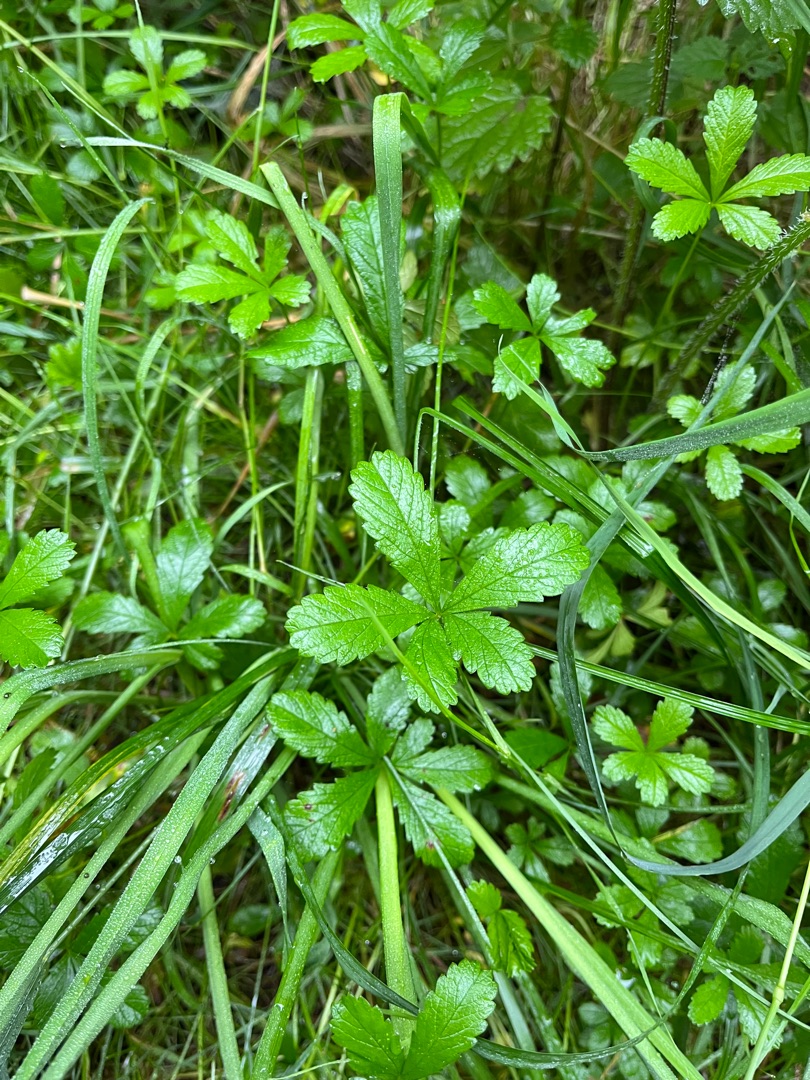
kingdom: Plantae
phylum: Tracheophyta
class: Magnoliopsida
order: Rosales
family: Rosaceae
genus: Potentilla
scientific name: Potentilla reptans
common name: Krybende potentil
